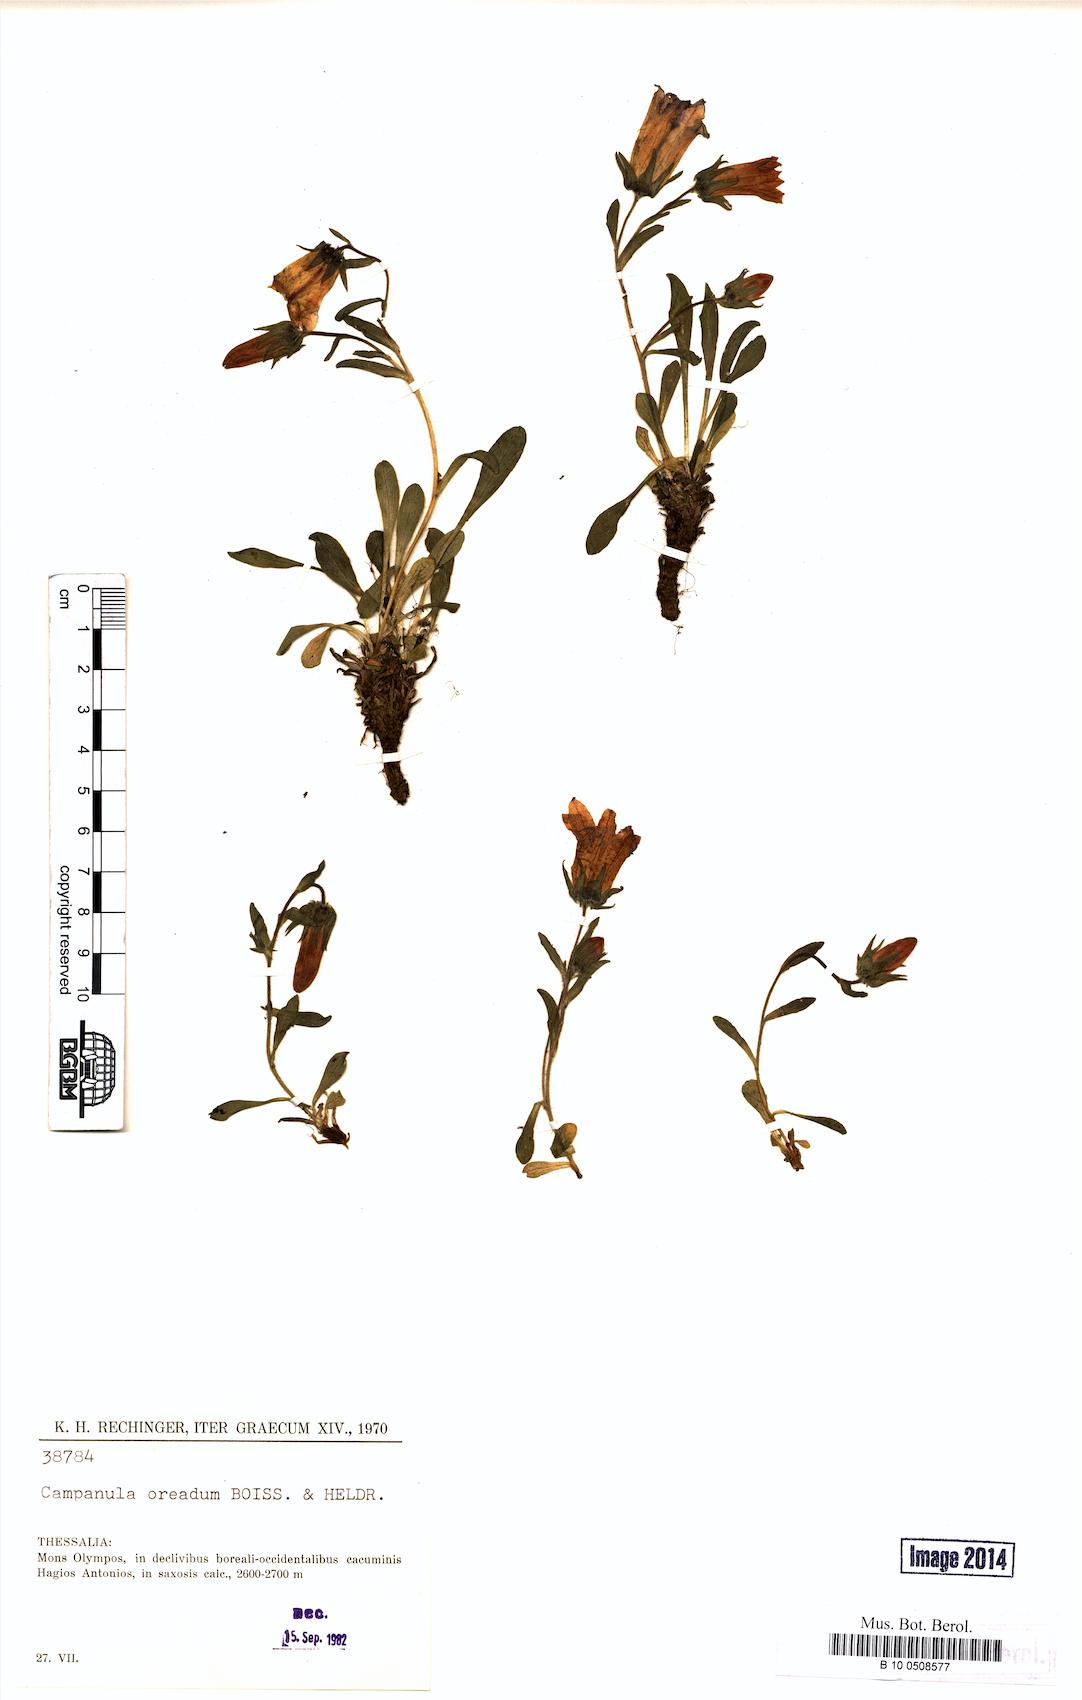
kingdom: Plantae
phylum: Tracheophyta
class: Magnoliopsida
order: Asterales
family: Campanulaceae
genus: Campanula
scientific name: Campanula oreadum
